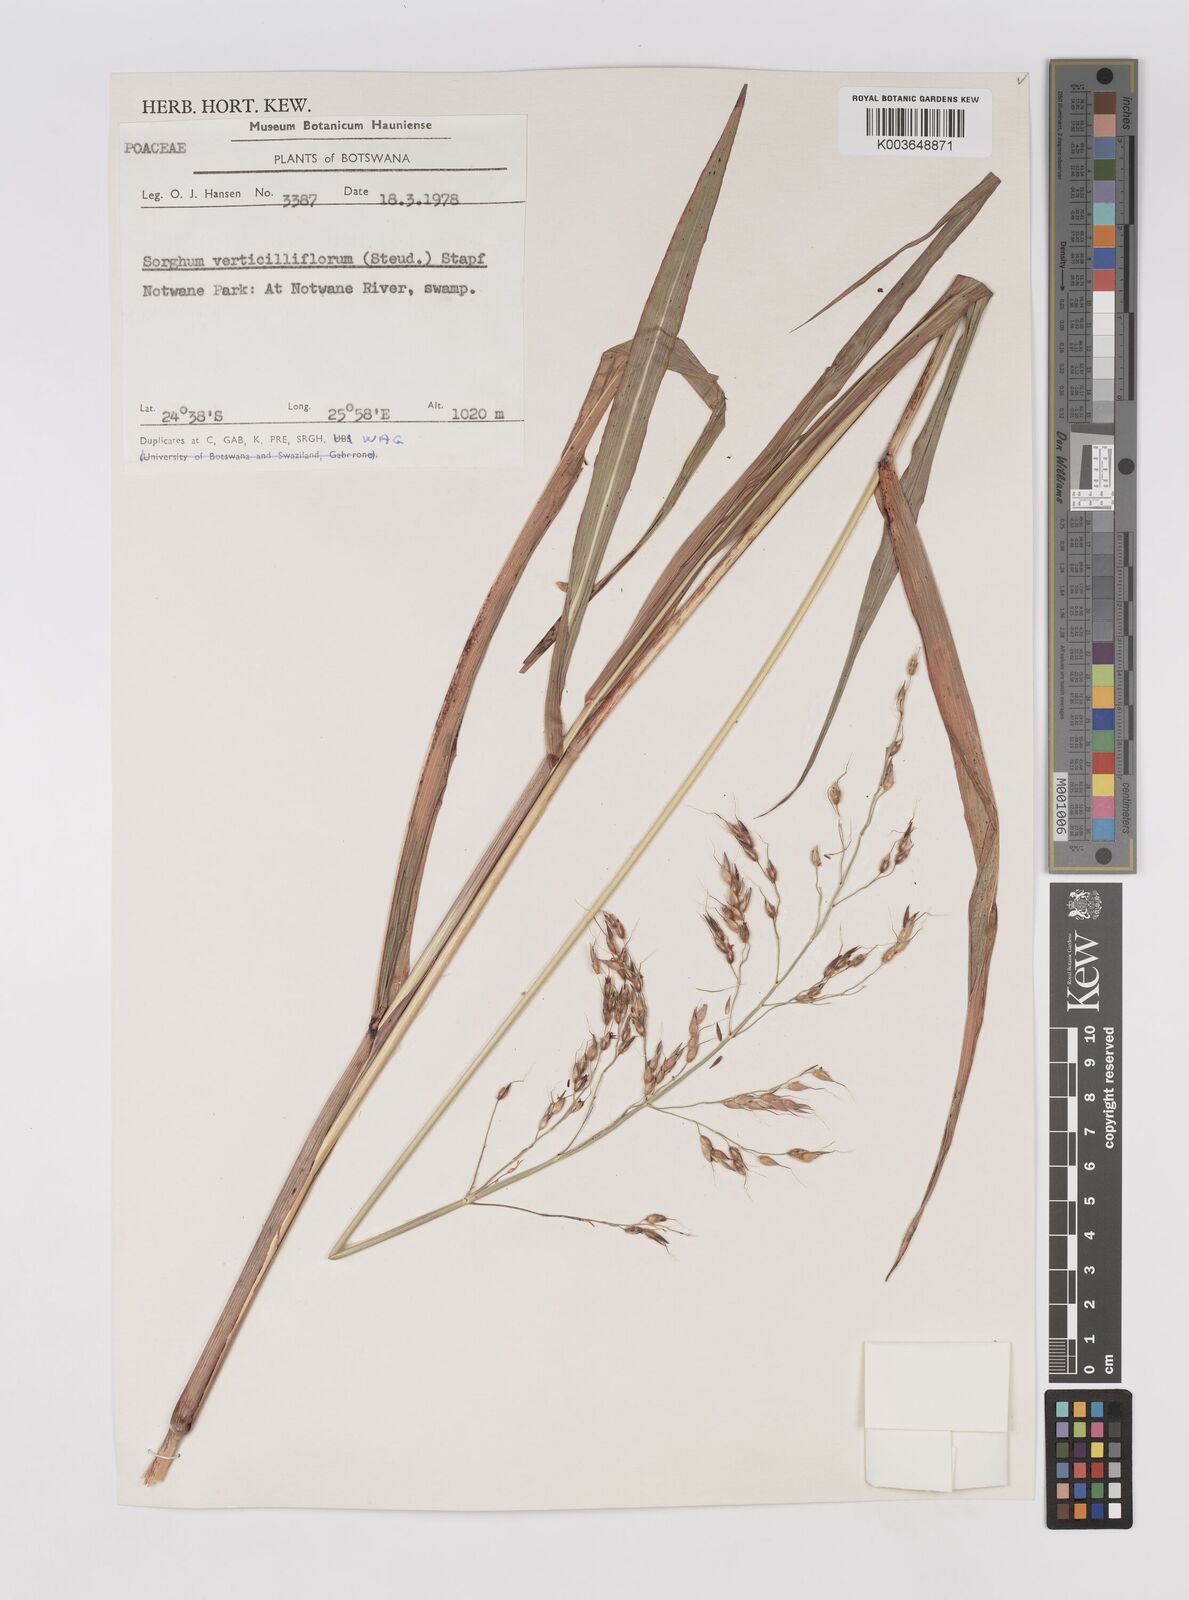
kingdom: Plantae
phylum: Tracheophyta
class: Liliopsida
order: Poales
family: Poaceae
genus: Sorghum
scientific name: Sorghum arundinaceum
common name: Sorghum
